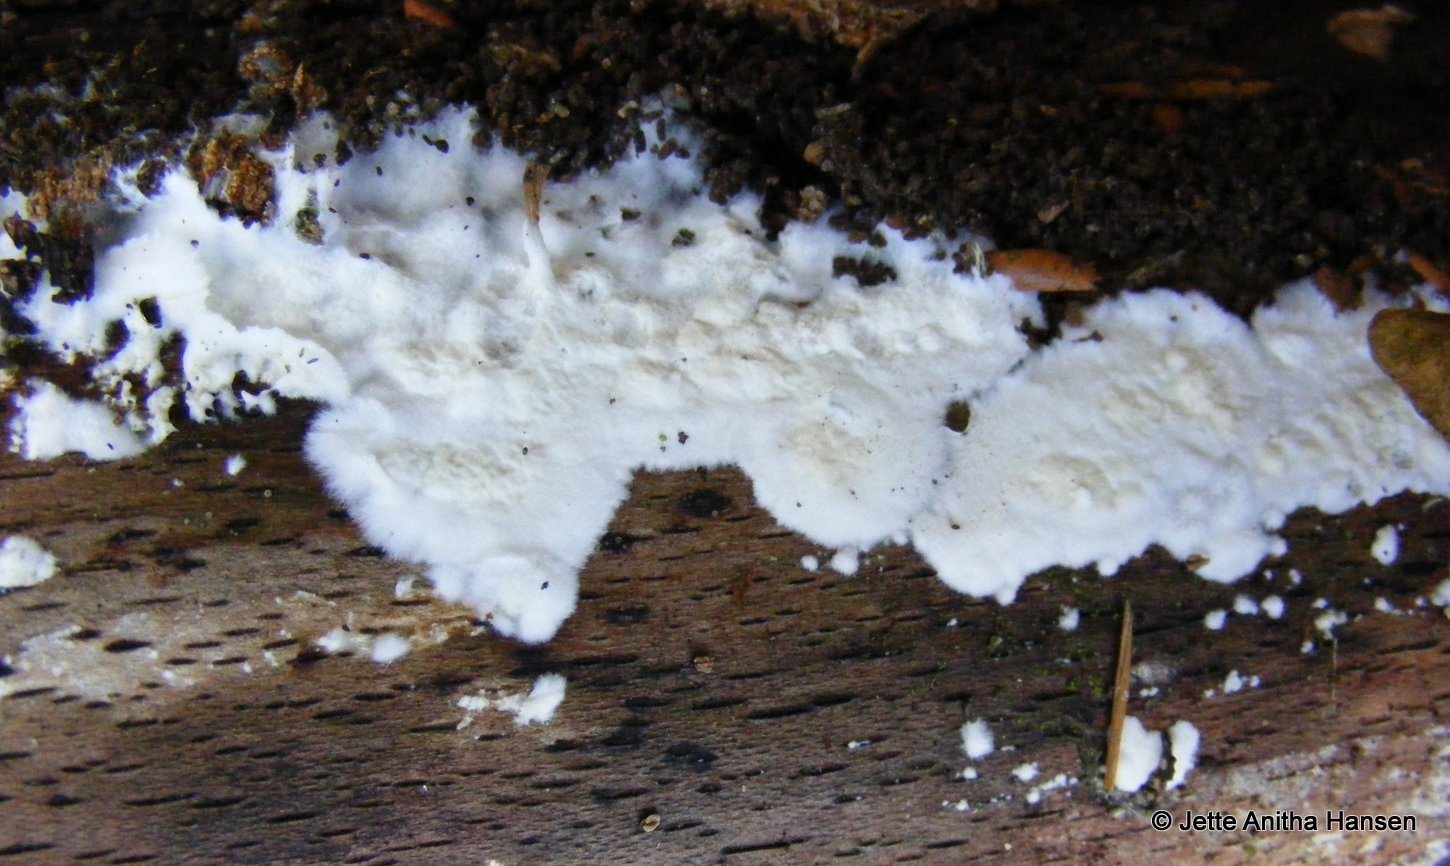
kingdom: Fungi
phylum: Basidiomycota
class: Agaricomycetes
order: Polyporales
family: Irpicaceae
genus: Byssomerulius
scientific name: Byssomerulius corium
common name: læder-åresvamp
